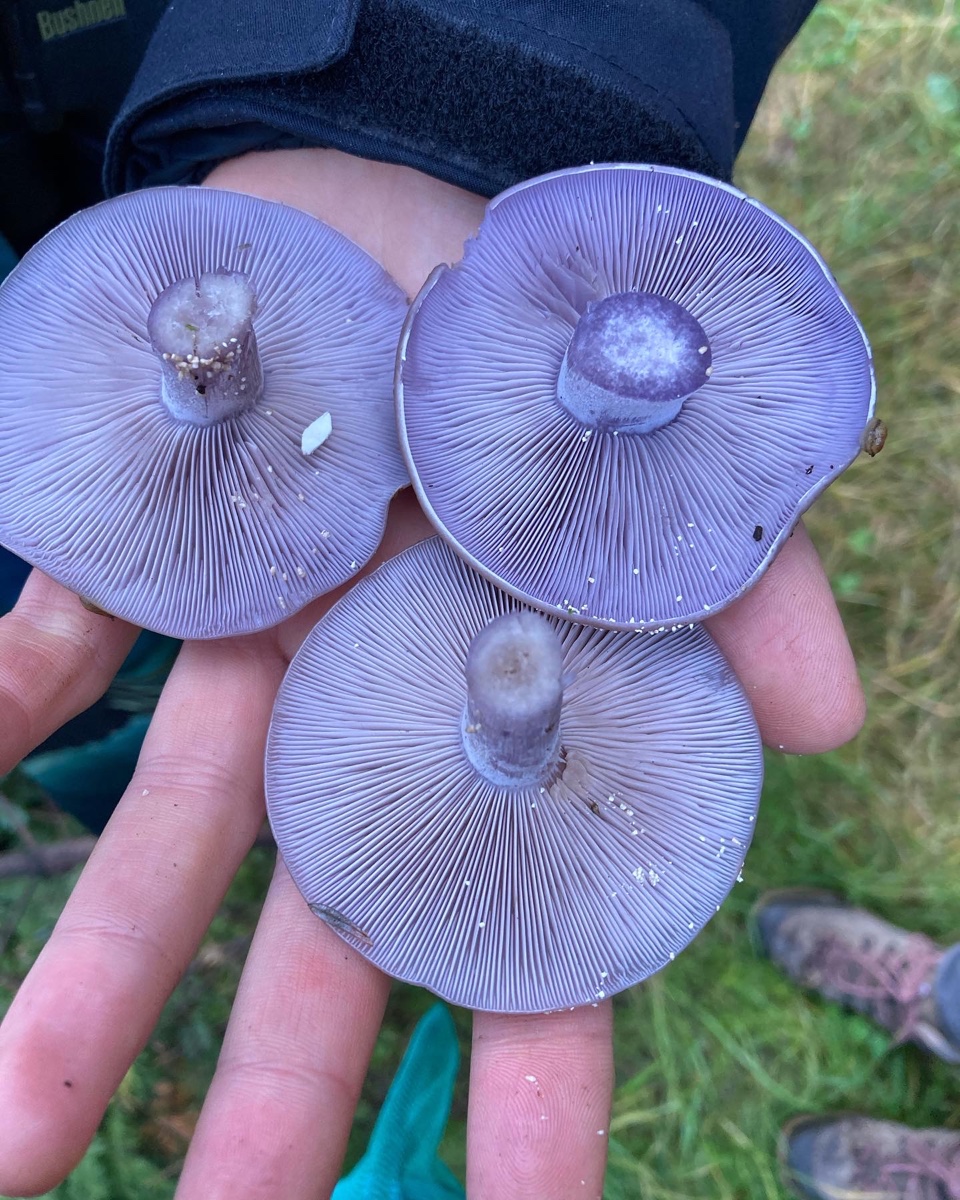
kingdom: Fungi
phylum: Basidiomycota
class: Agaricomycetes
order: Agaricales
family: Tricholomataceae
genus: Lepista
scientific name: Lepista nuda
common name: violet hekseringshat
